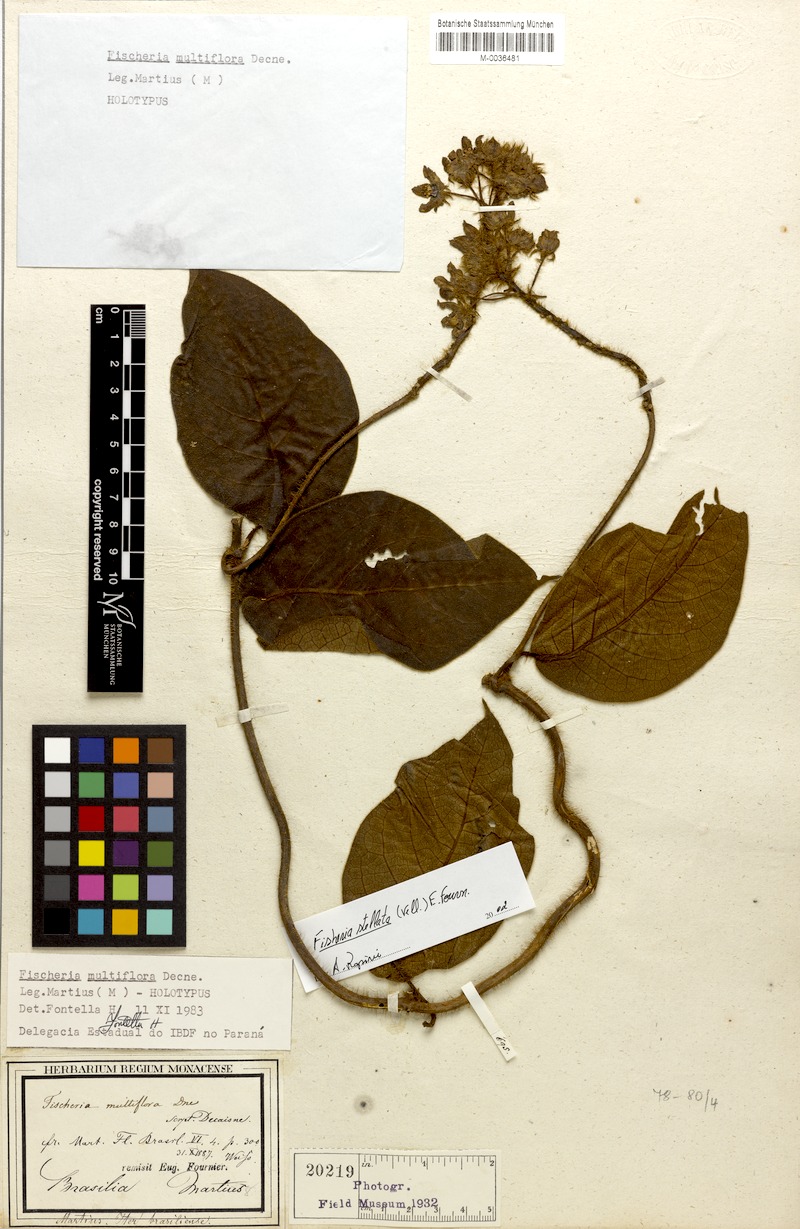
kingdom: Plantae
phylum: Tracheophyta
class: Magnoliopsida
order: Gentianales
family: Apocynaceae
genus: Fischeria
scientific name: Fischeria stellata
